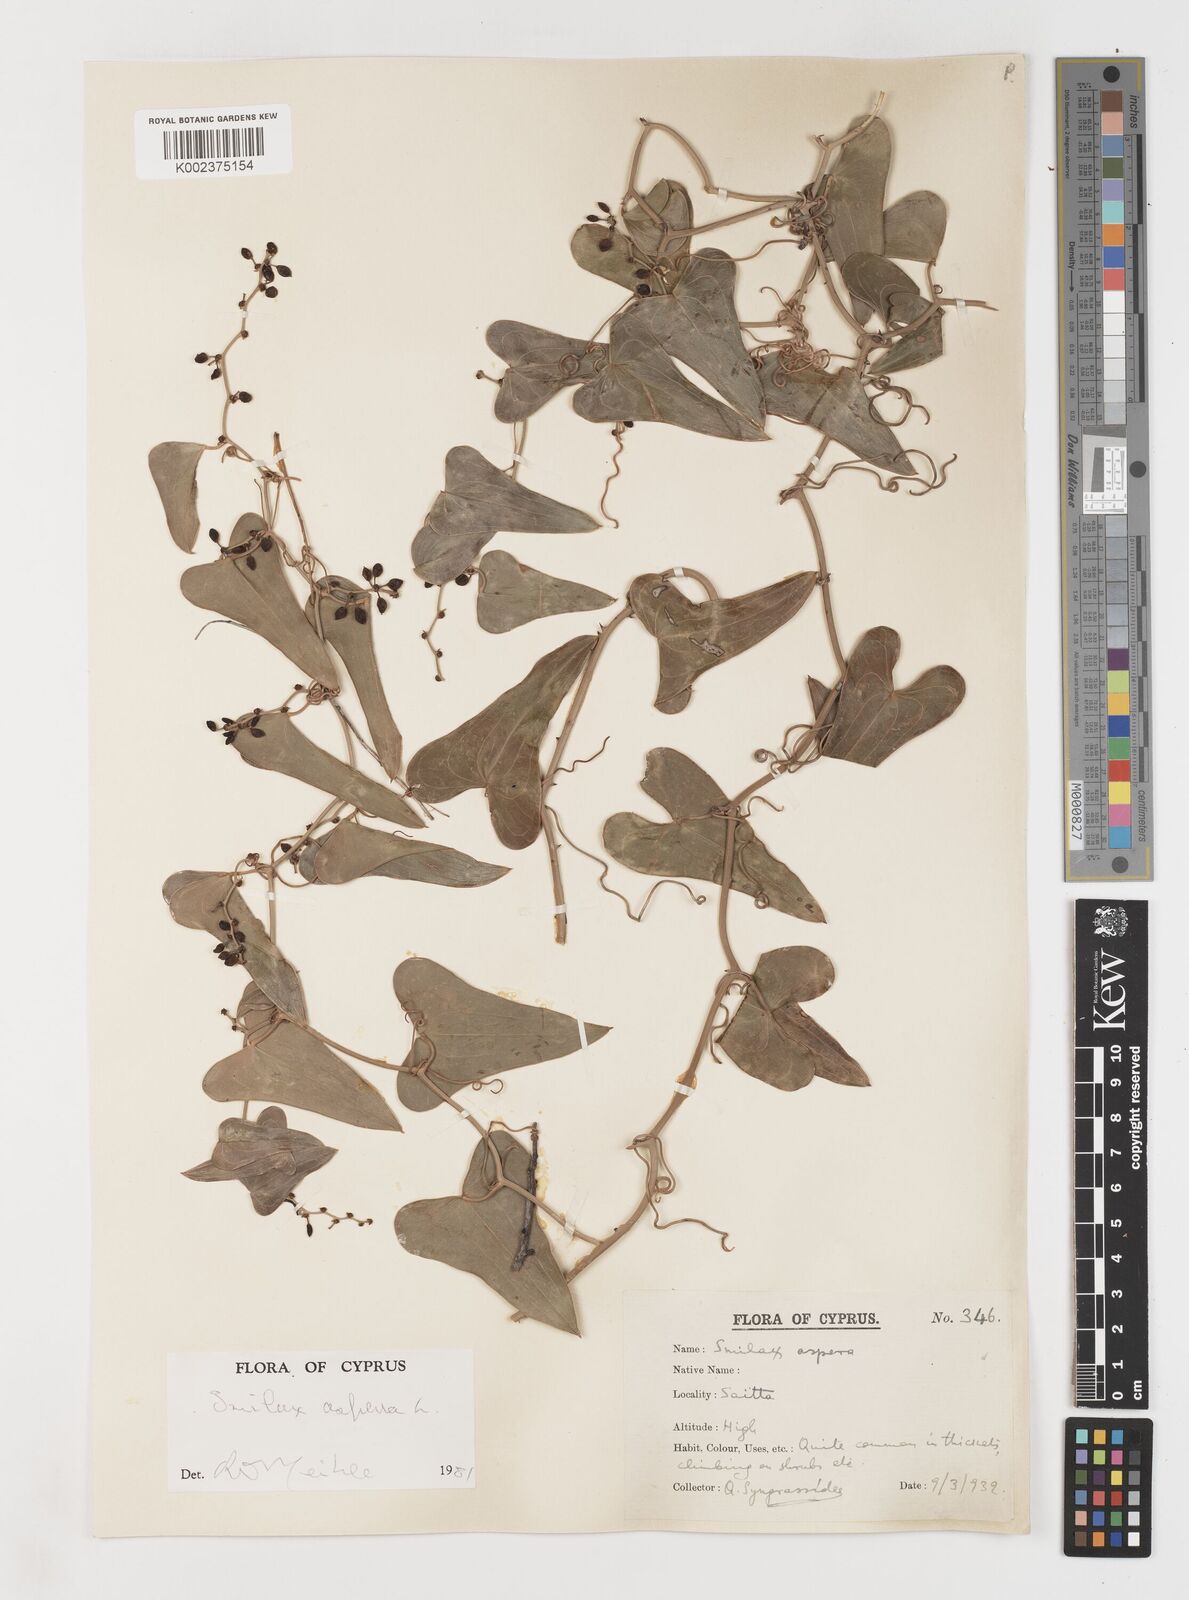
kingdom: Plantae
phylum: Tracheophyta
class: Liliopsida
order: Liliales
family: Smilacaceae
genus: Smilax
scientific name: Smilax aspera
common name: Common smilax
